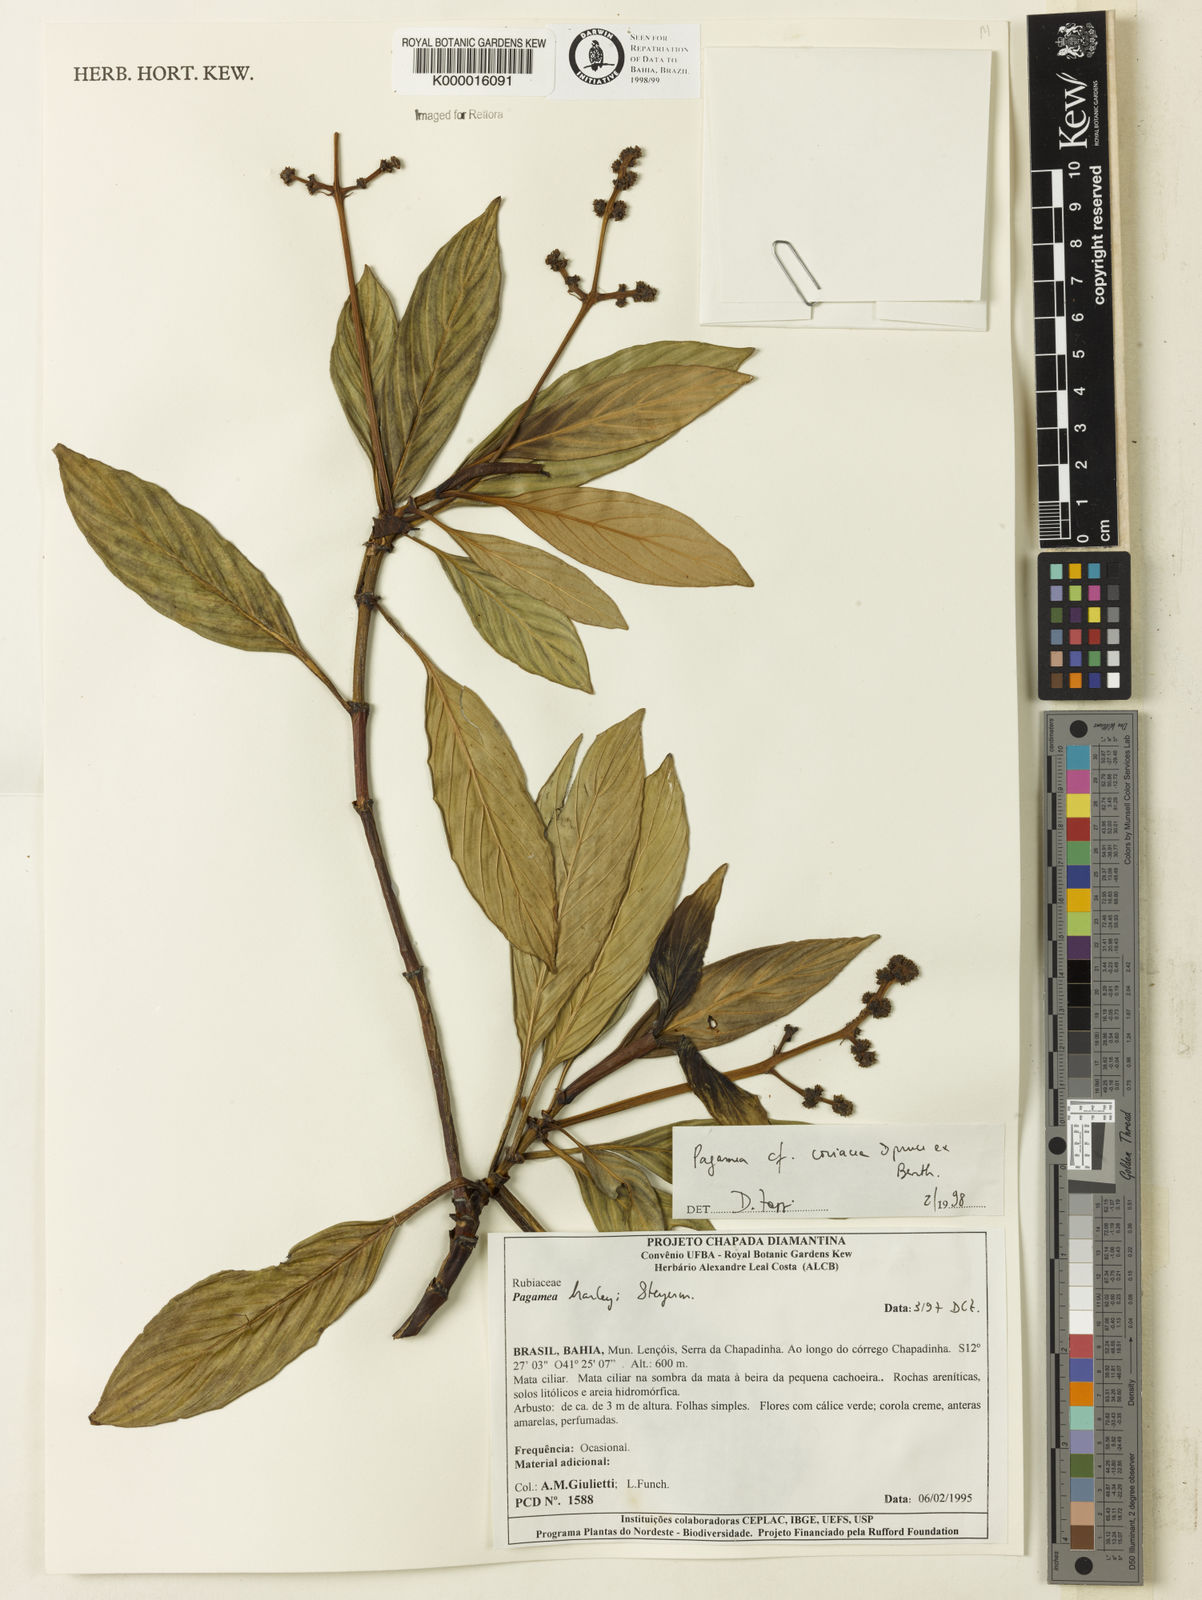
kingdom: Plantae
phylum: Tracheophyta
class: Magnoliopsida
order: Gentianales
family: Rubiaceae
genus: Pagamea
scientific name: Pagamea coriacea
